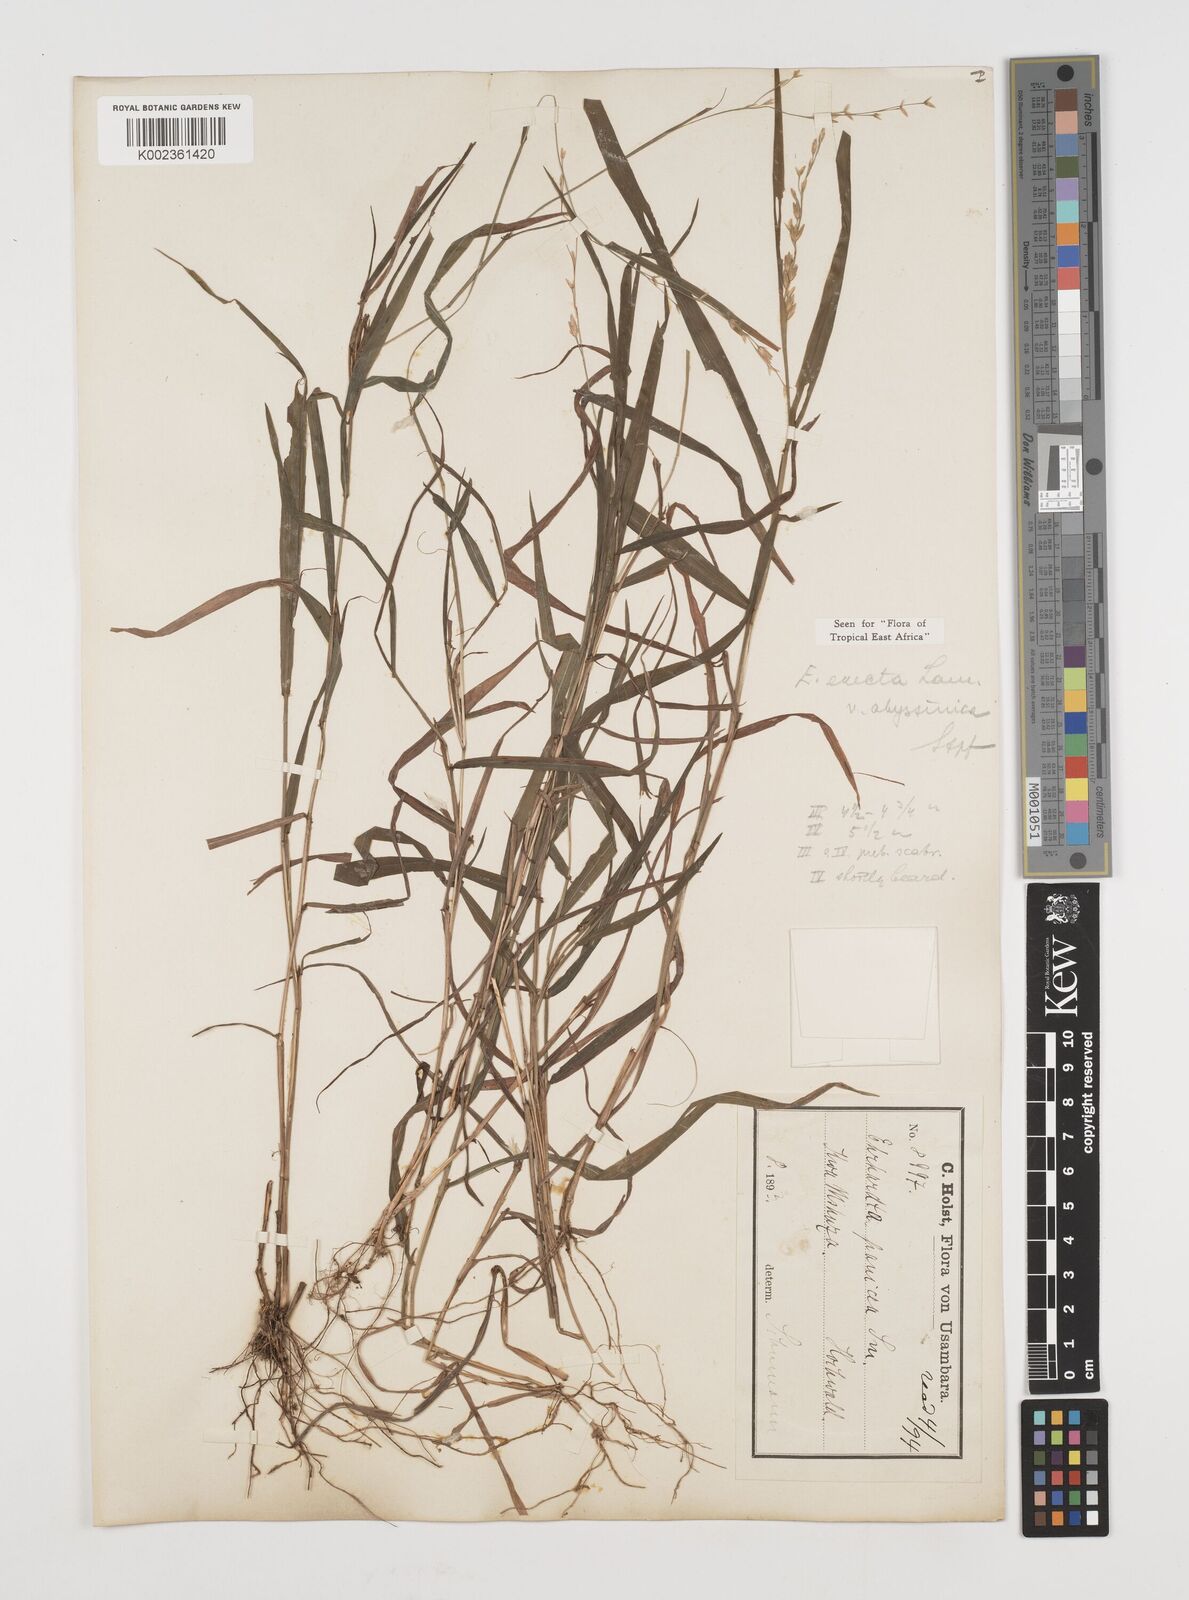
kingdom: Plantae
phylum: Tracheophyta
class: Liliopsida
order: Poales
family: Poaceae
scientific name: Poaceae
